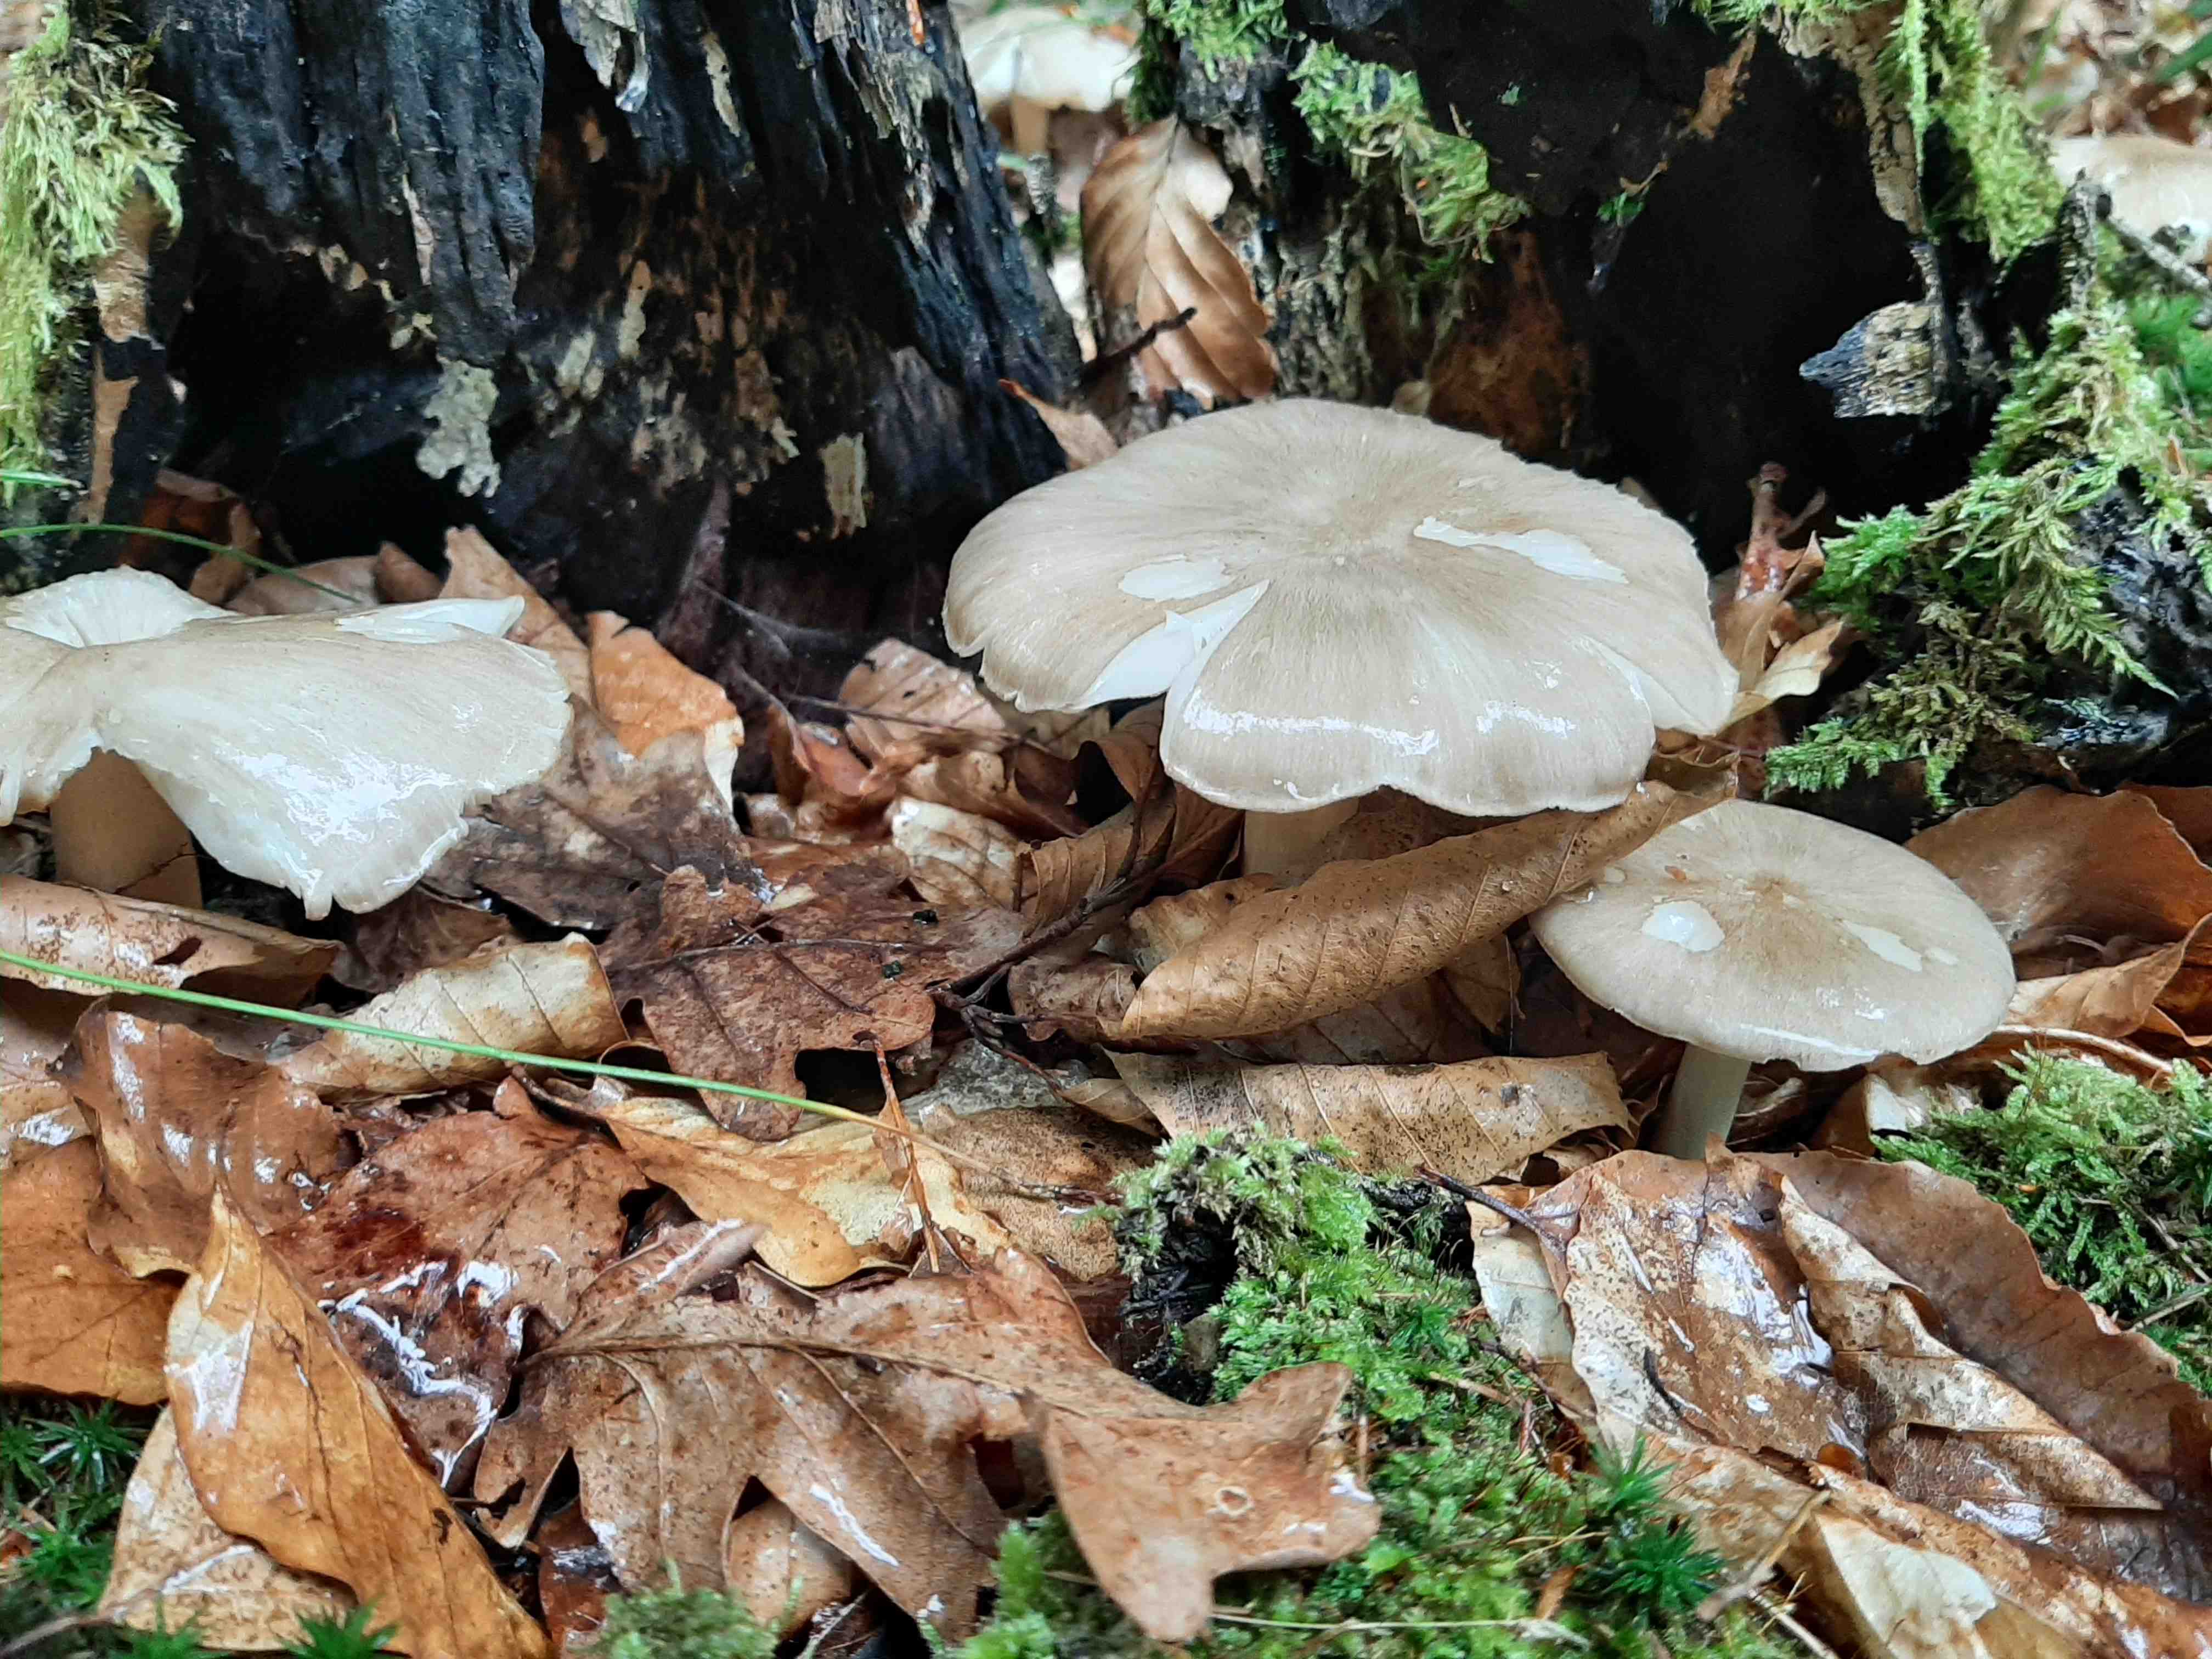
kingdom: Fungi
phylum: Basidiomycota
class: Agaricomycetes
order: Agaricales
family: Tricholomataceae
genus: Megacollybia
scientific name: Megacollybia platyphylla
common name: bredbladet væbnerhat
